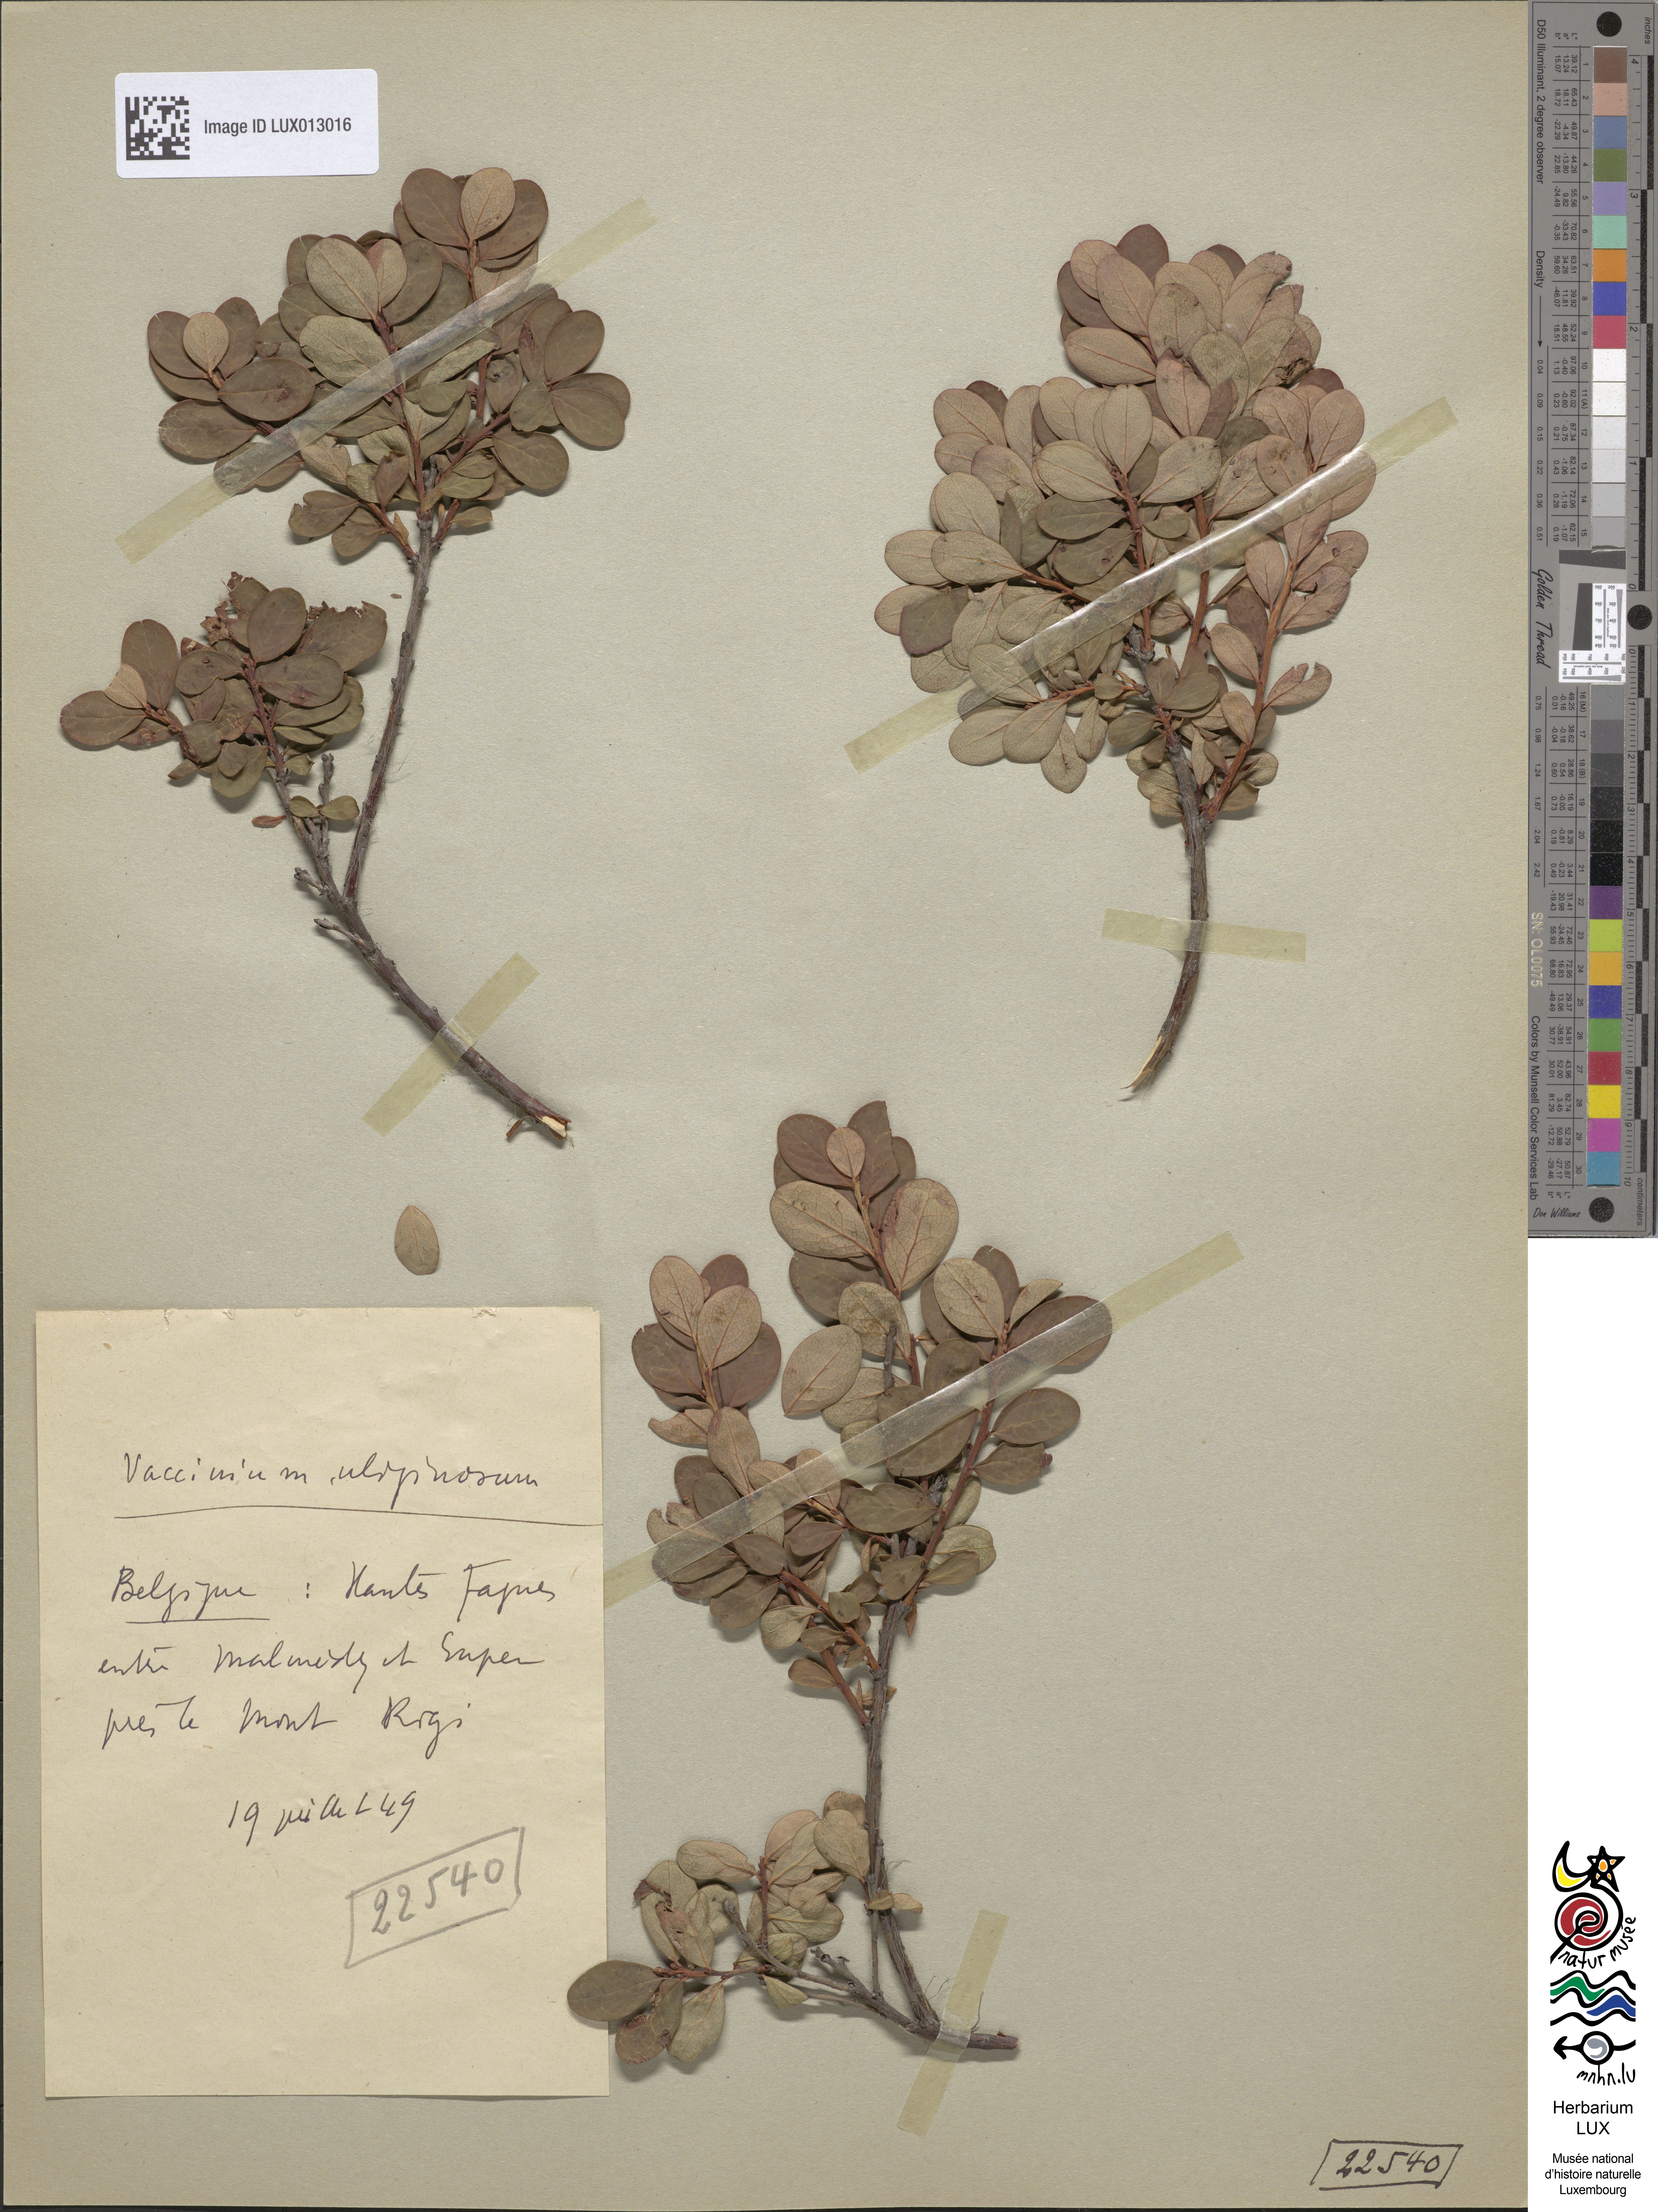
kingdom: Plantae
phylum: Tracheophyta
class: Magnoliopsida
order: Ericales
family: Ericaceae
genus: Vaccinium
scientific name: Vaccinium uliginosum
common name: Bog bilberry
